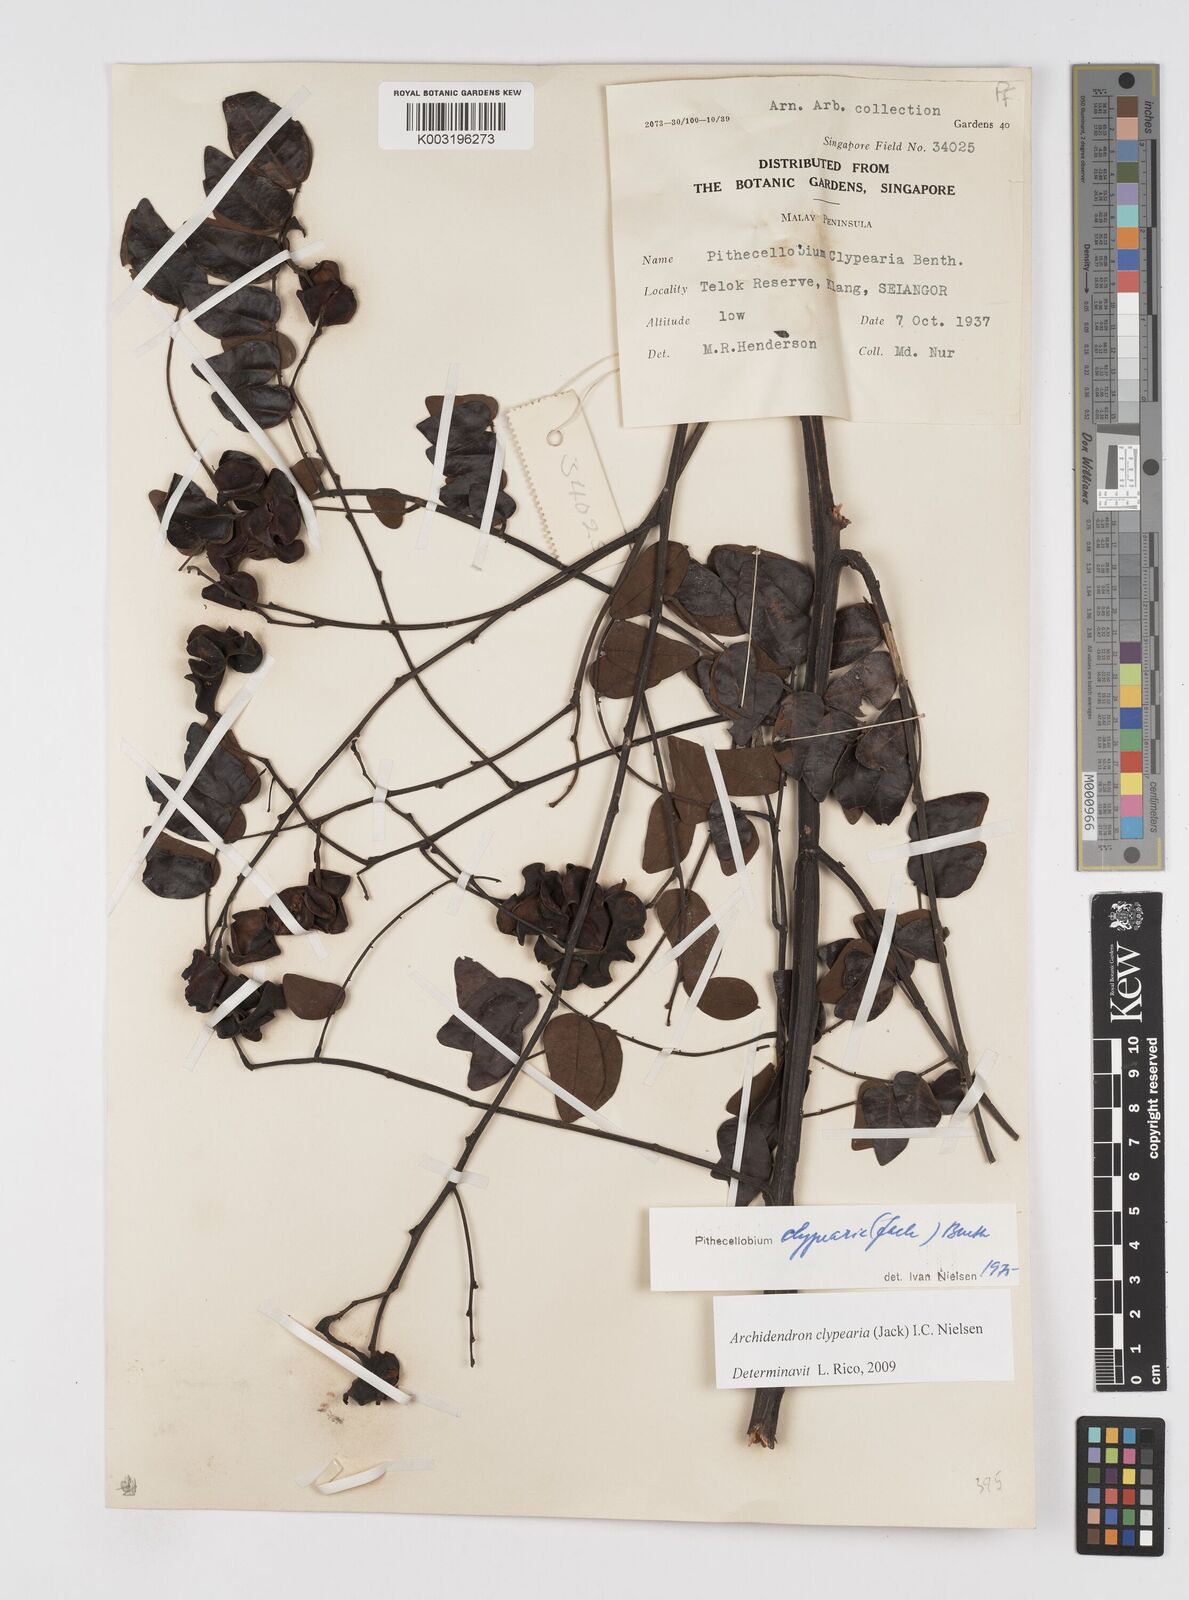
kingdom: Plantae
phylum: Tracheophyta
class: Magnoliopsida
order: Fabales
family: Fabaceae
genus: Archidendron
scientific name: Archidendron clypearia
